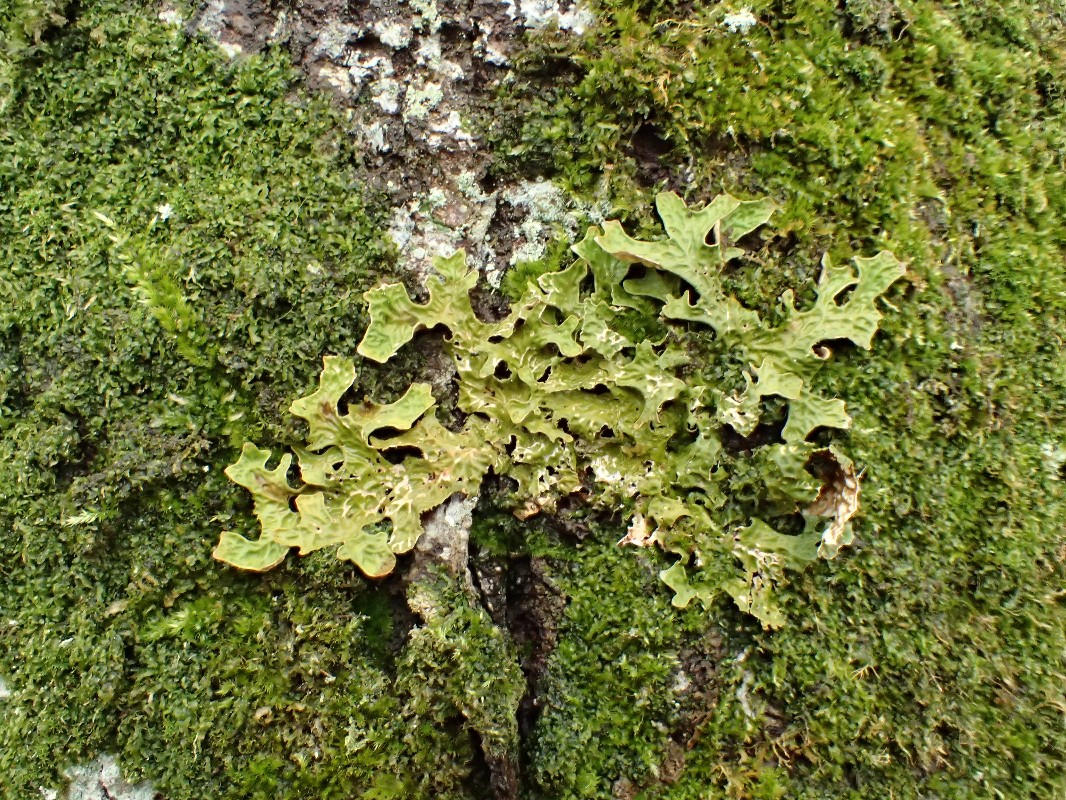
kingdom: Fungi
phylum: Ascomycota
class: Lecanoromycetes
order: Peltigerales
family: Lobariaceae
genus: Lobaria
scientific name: Lobaria pulmonaria
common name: almindelig lungelav
